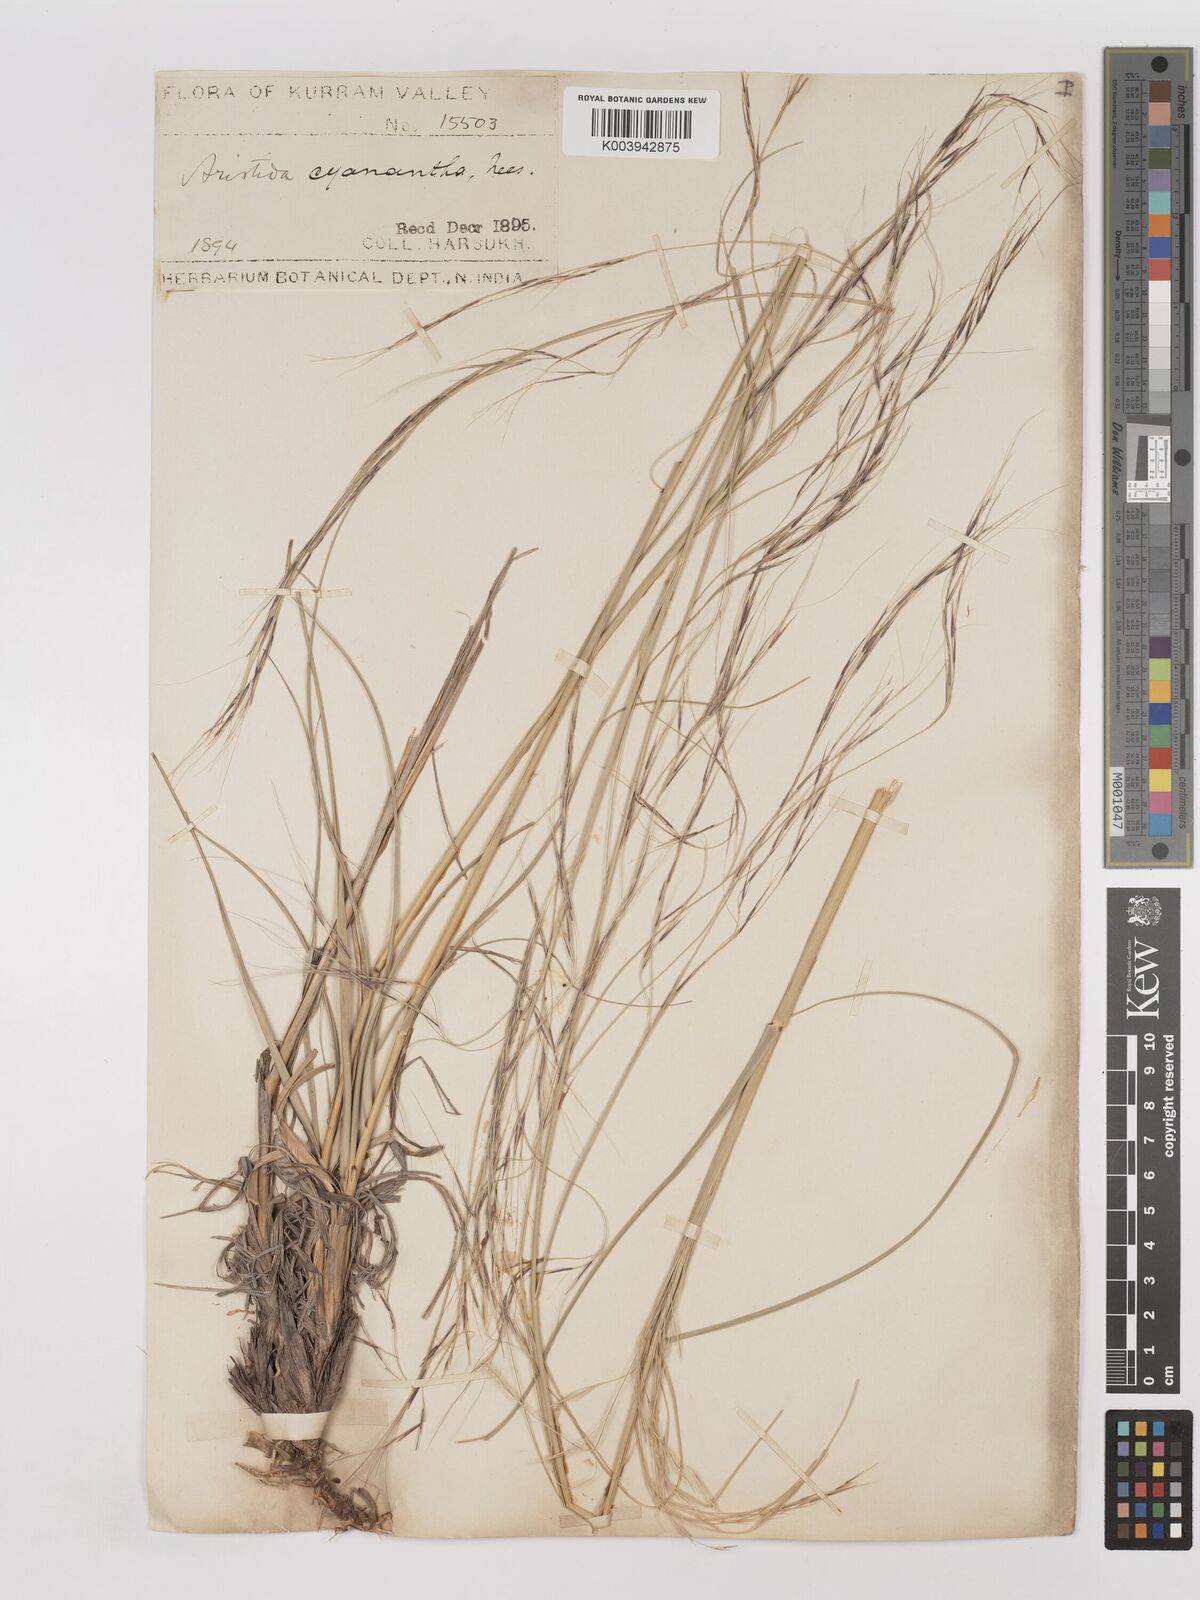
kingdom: Plantae
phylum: Tracheophyta
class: Liliopsida
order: Poales
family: Poaceae
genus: Aristida
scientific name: Aristida cyanantha
